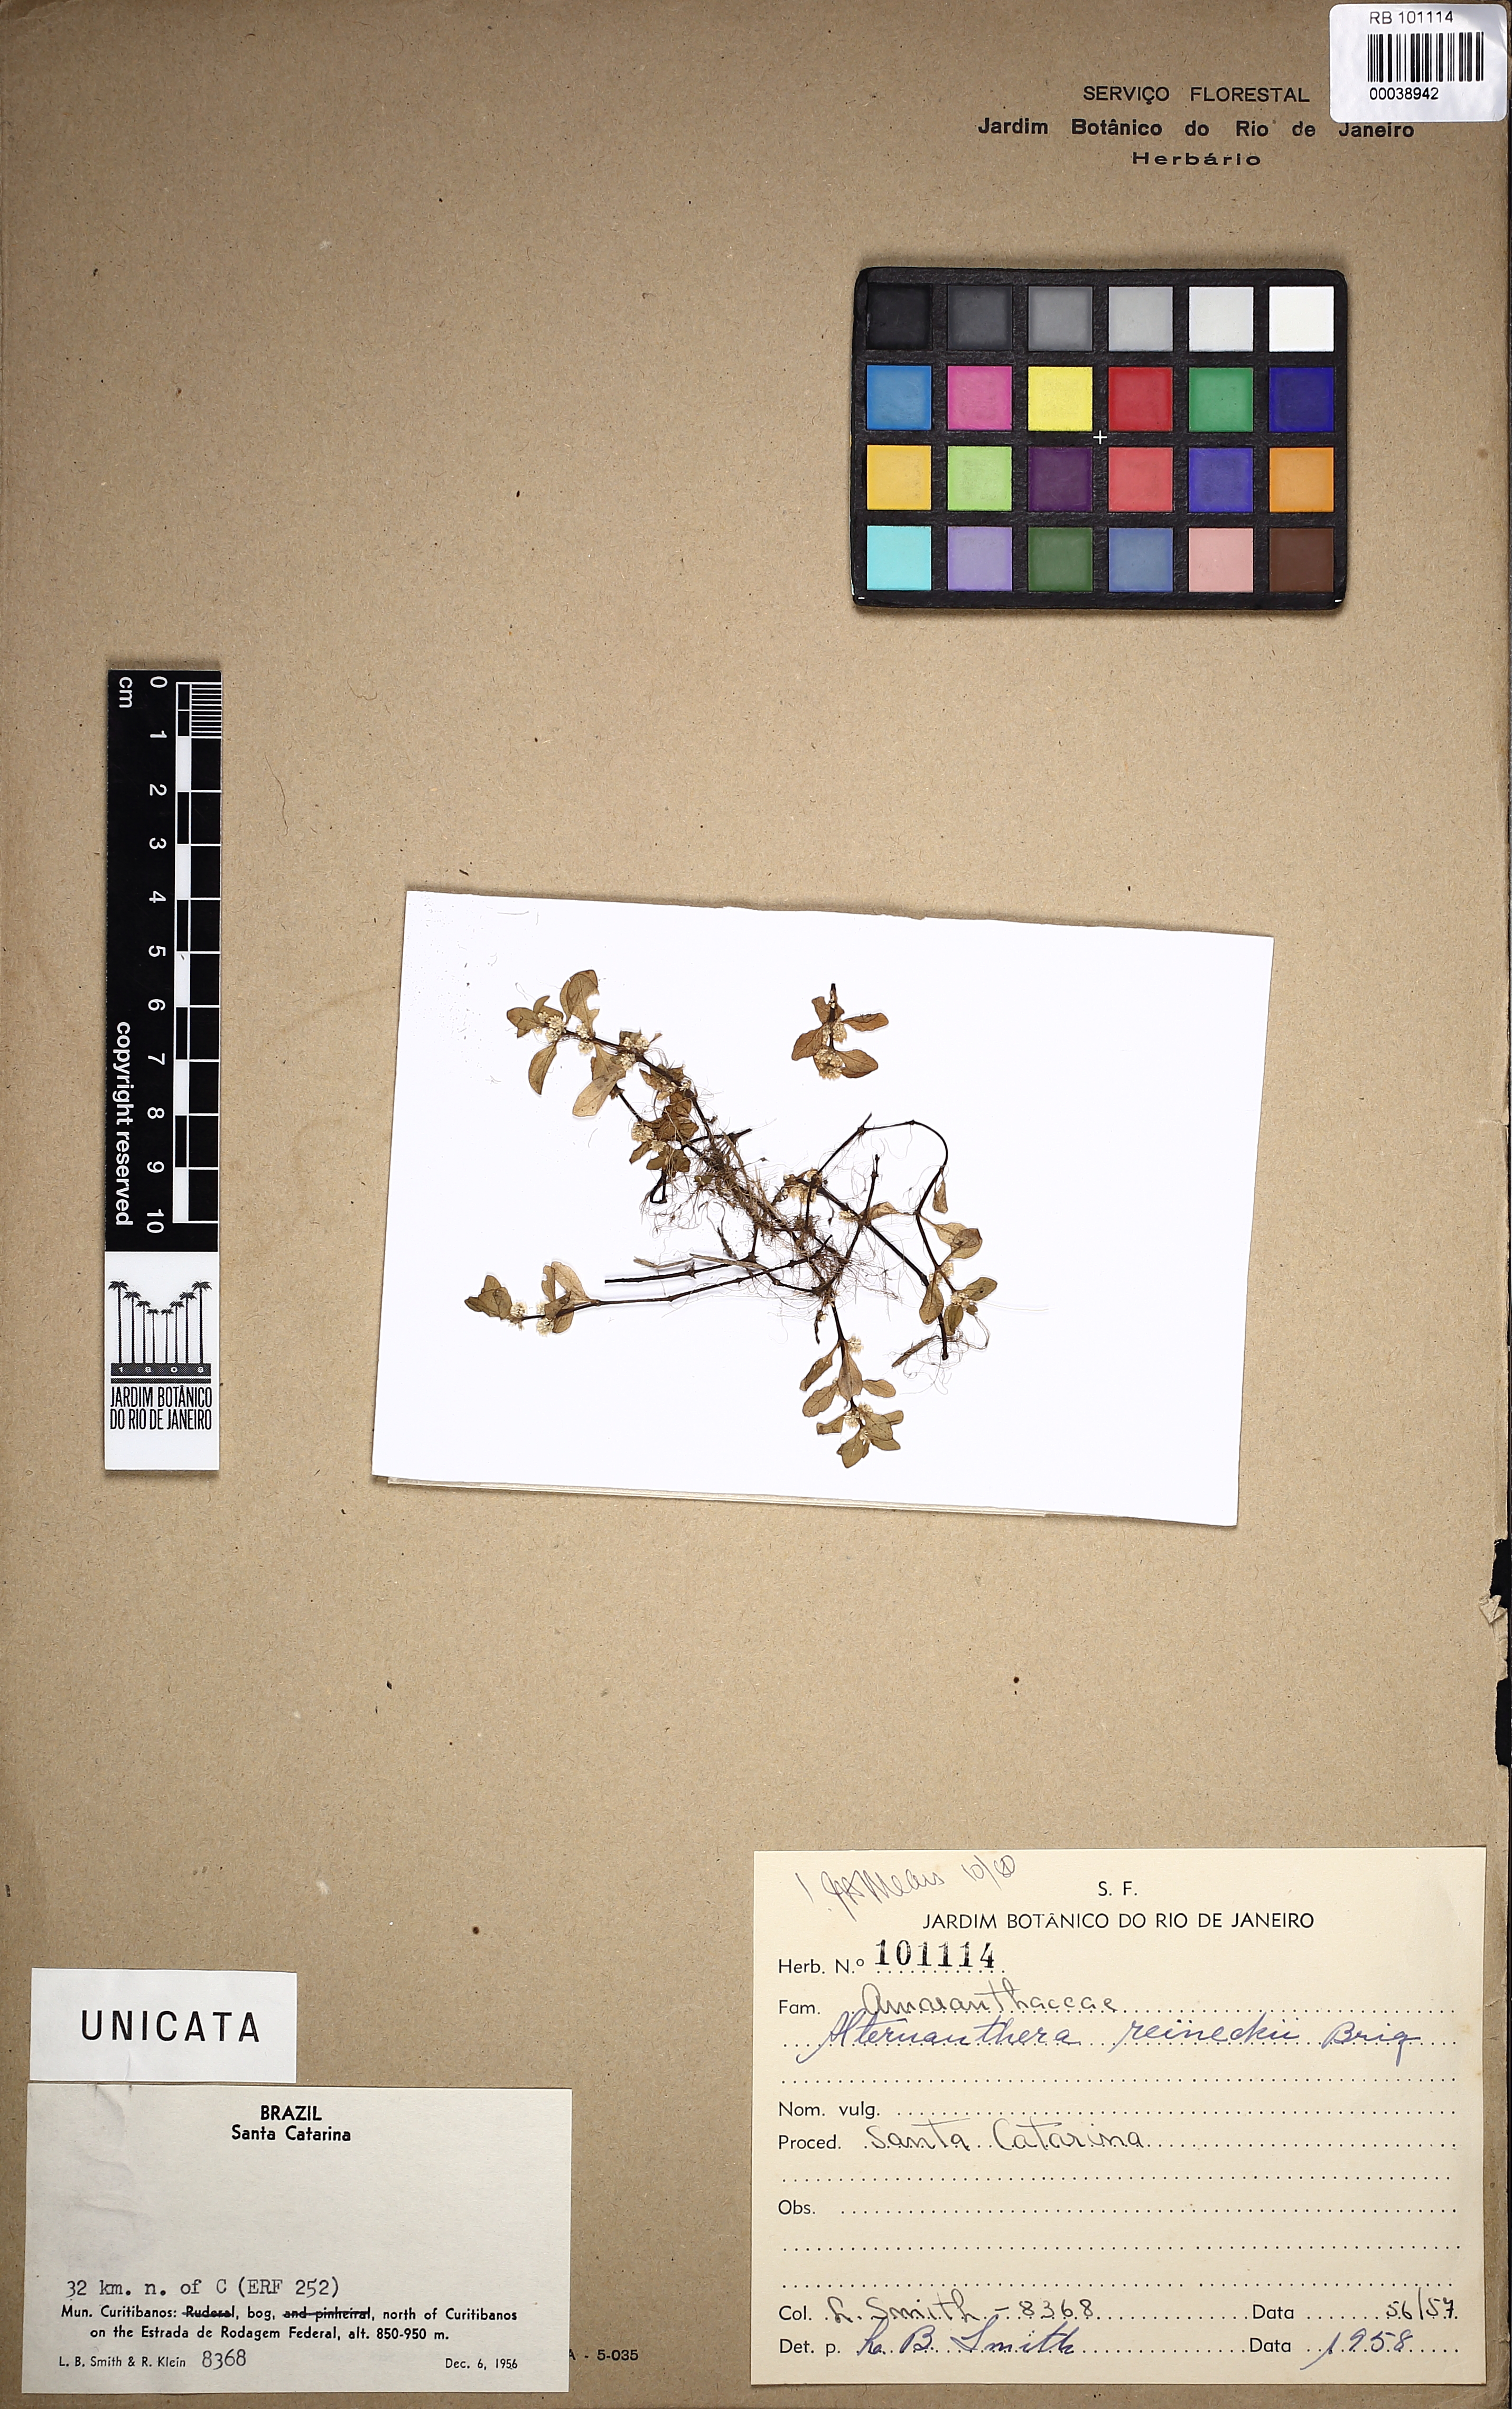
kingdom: Plantae
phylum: Tracheophyta
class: Magnoliopsida
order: Caryophyllales
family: Amaranthaceae
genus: Alternanthera
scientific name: Alternanthera reineckii
